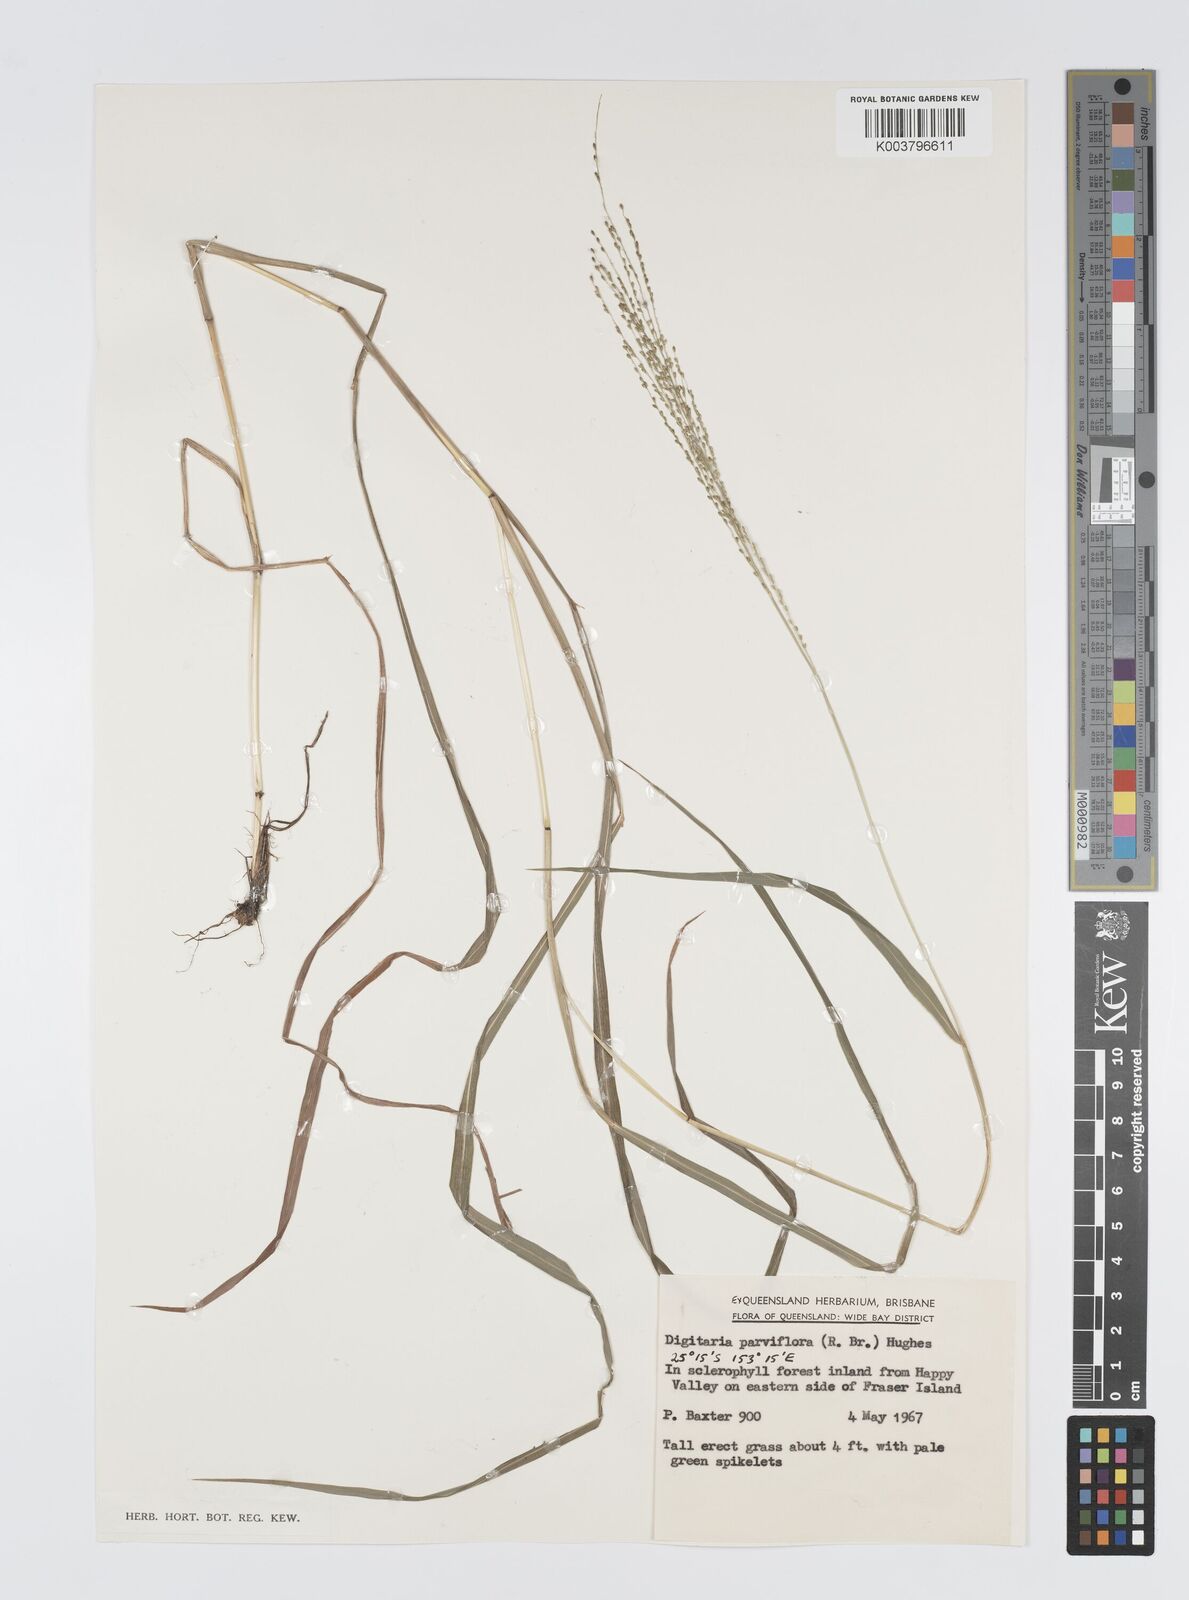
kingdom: Plantae
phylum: Tracheophyta
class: Liliopsida
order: Poales
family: Poaceae
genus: Digitaria
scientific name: Digitaria parviflora
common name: Small-flower finger grass
